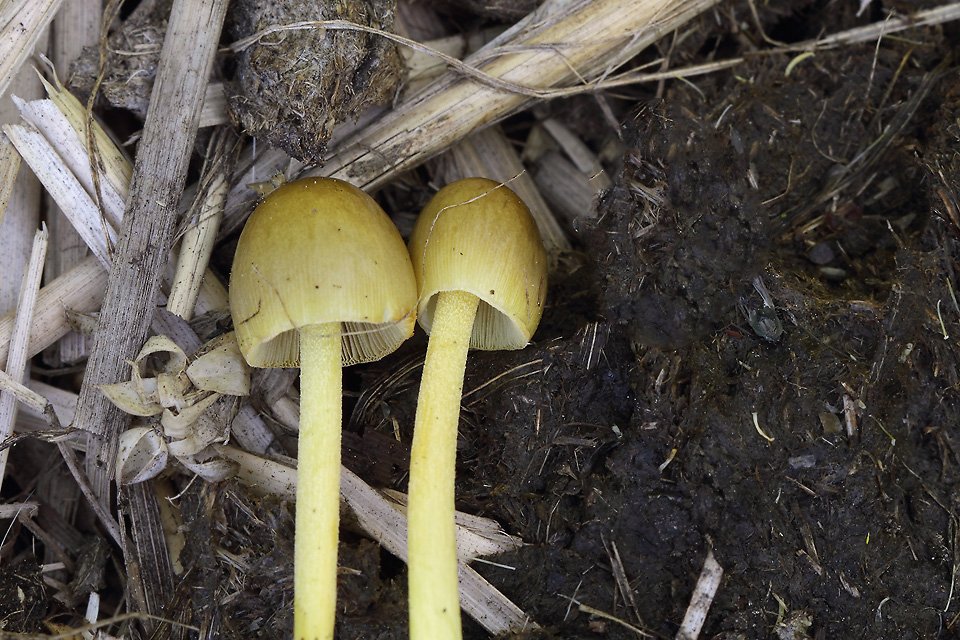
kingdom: Fungi
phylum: Basidiomycota
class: Agaricomycetes
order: Agaricales
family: Bolbitiaceae
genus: Bolbitius
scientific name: Bolbitius titubans
